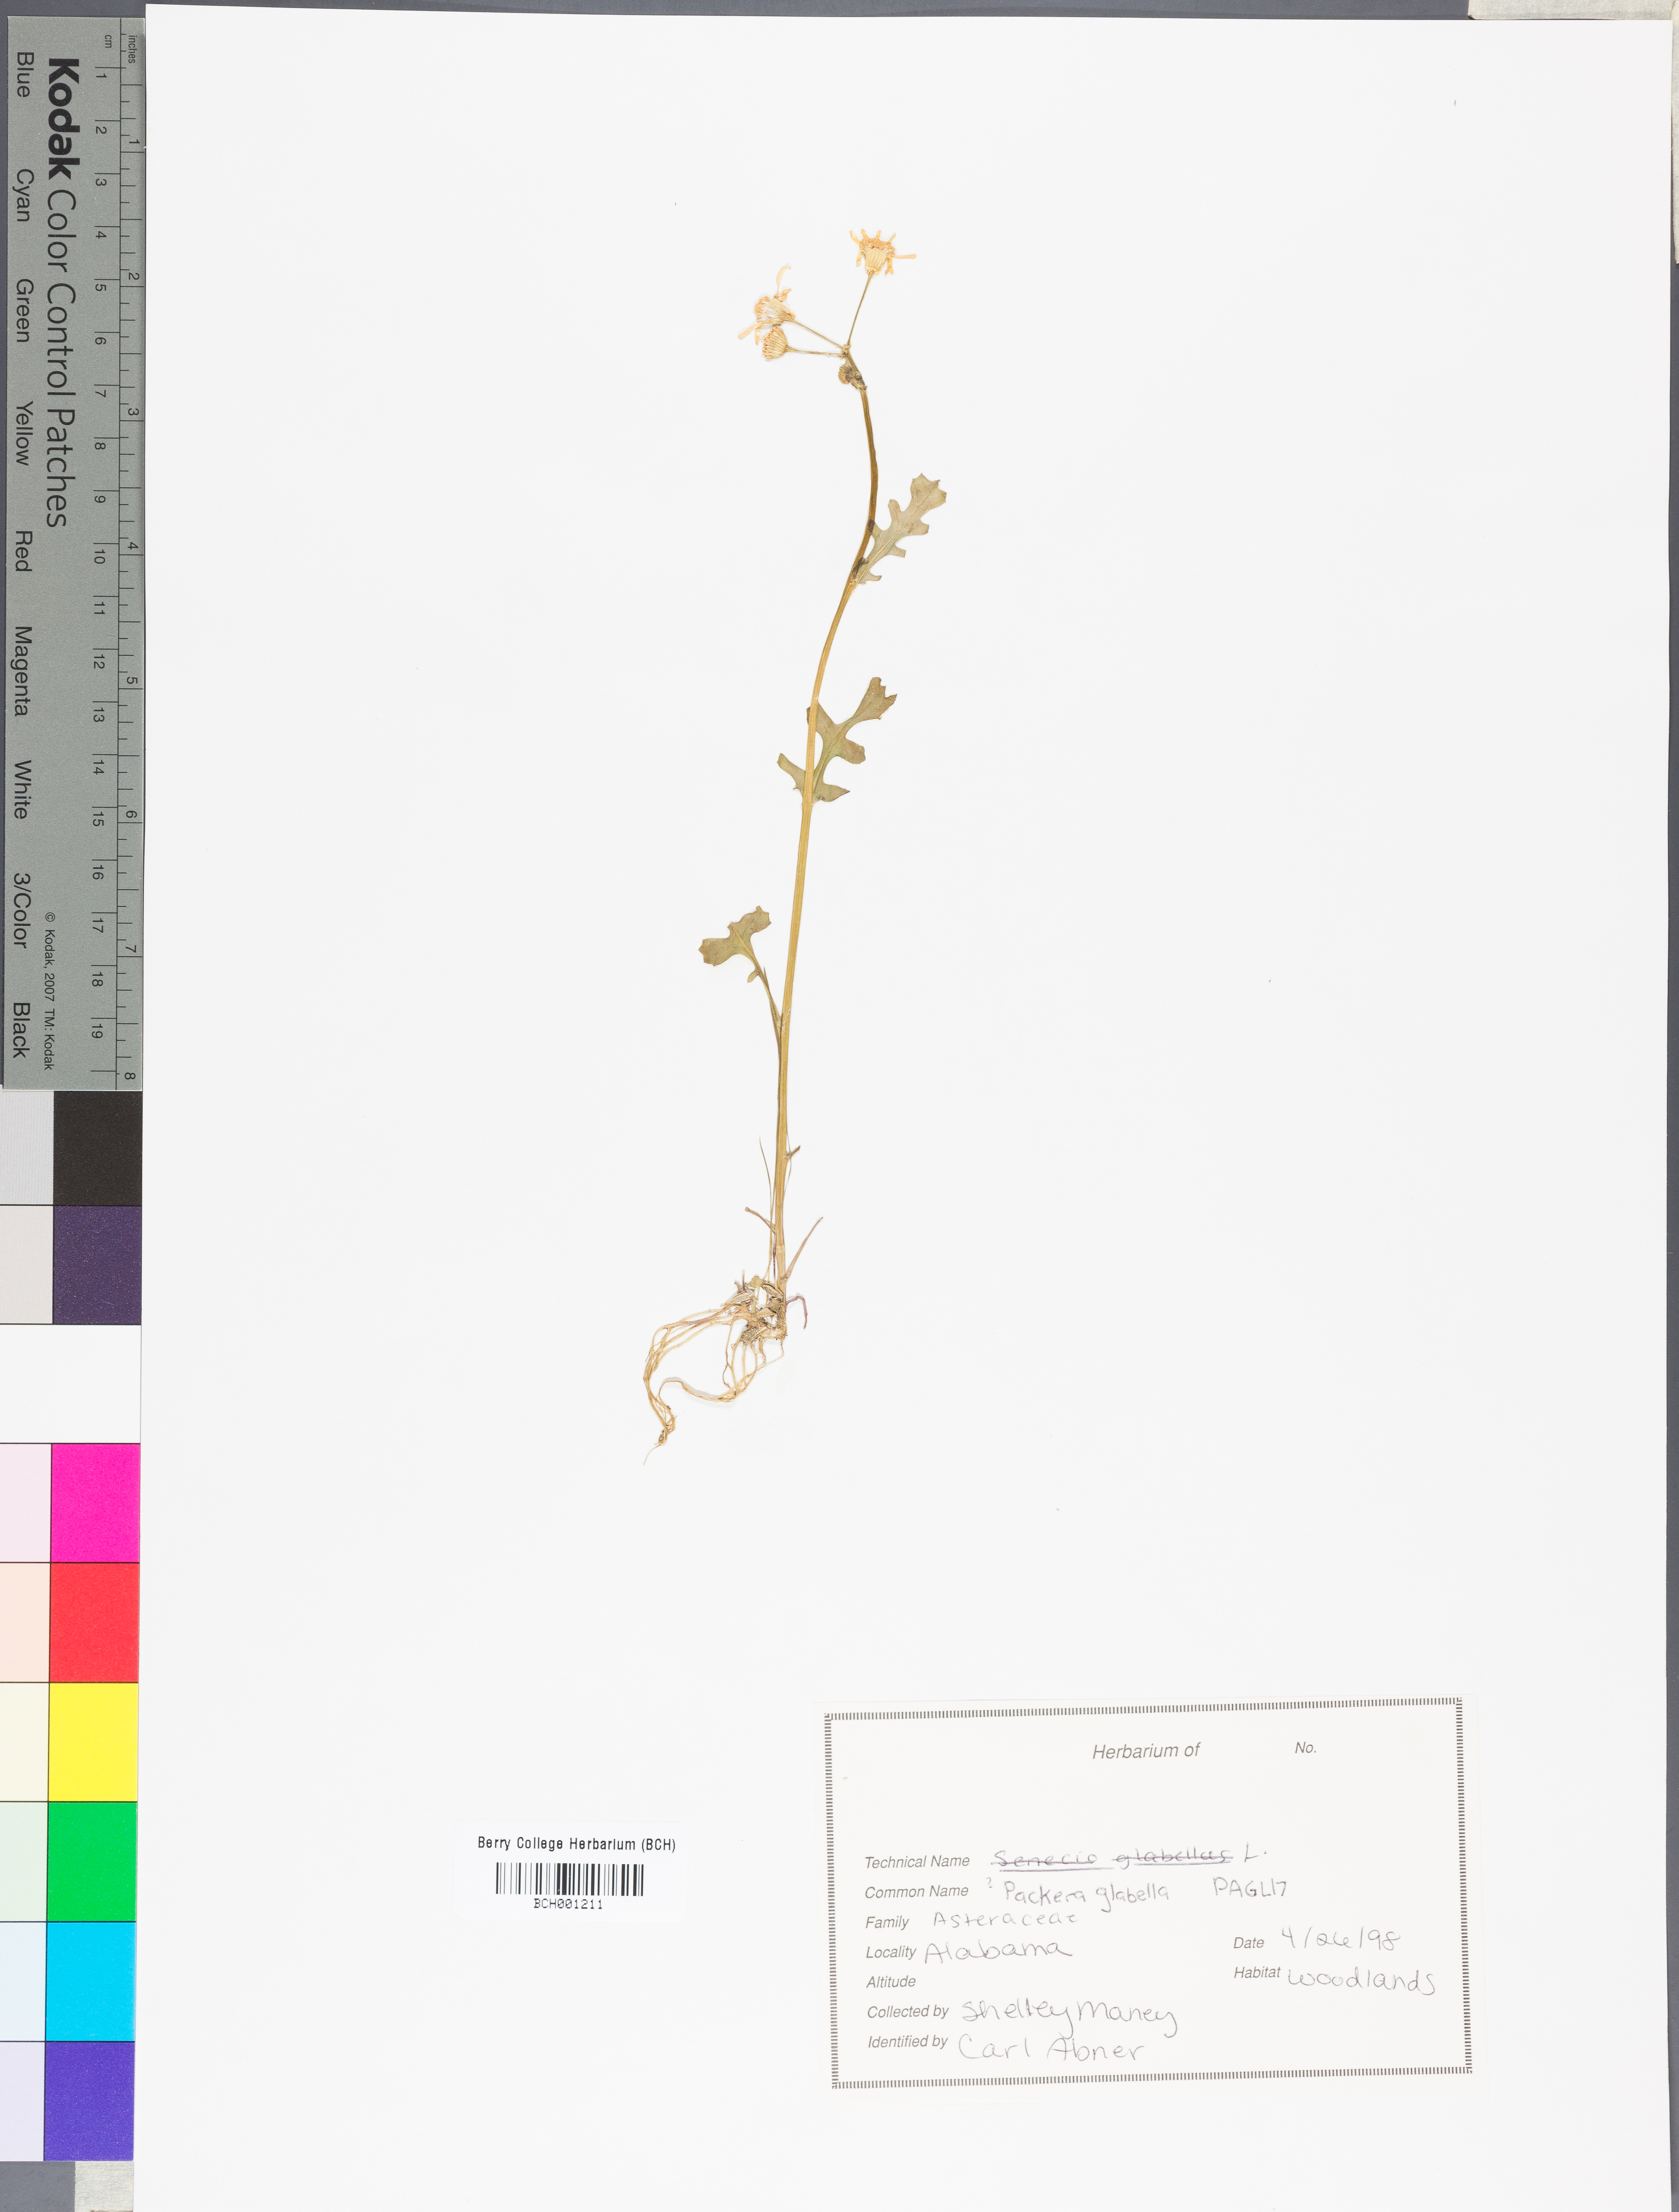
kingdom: Plantae
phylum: Tracheophyta
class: Magnoliopsida
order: Asterales
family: Asteraceae
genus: Packera
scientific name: Packera glabella
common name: Butterweed
